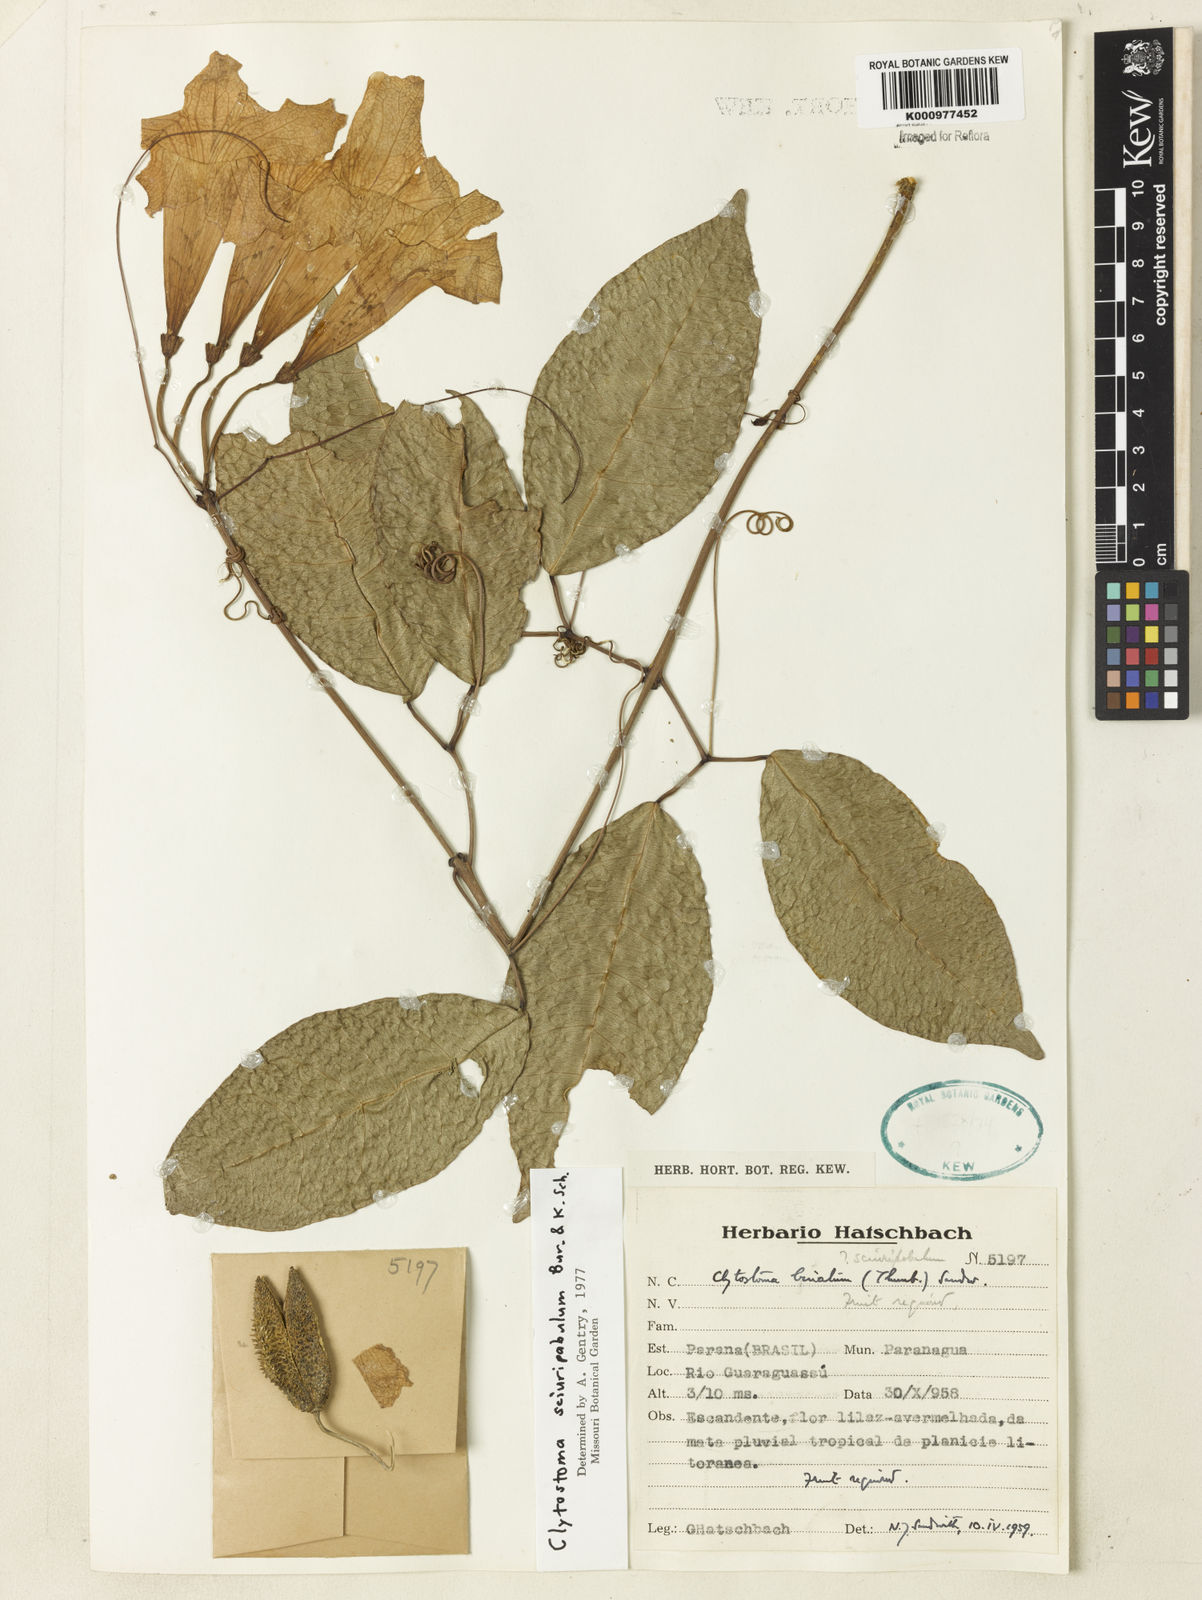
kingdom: Plantae
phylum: Tracheophyta
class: Magnoliopsida
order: Lamiales
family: Bignoniaceae
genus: Bignonia
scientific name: Bignonia
